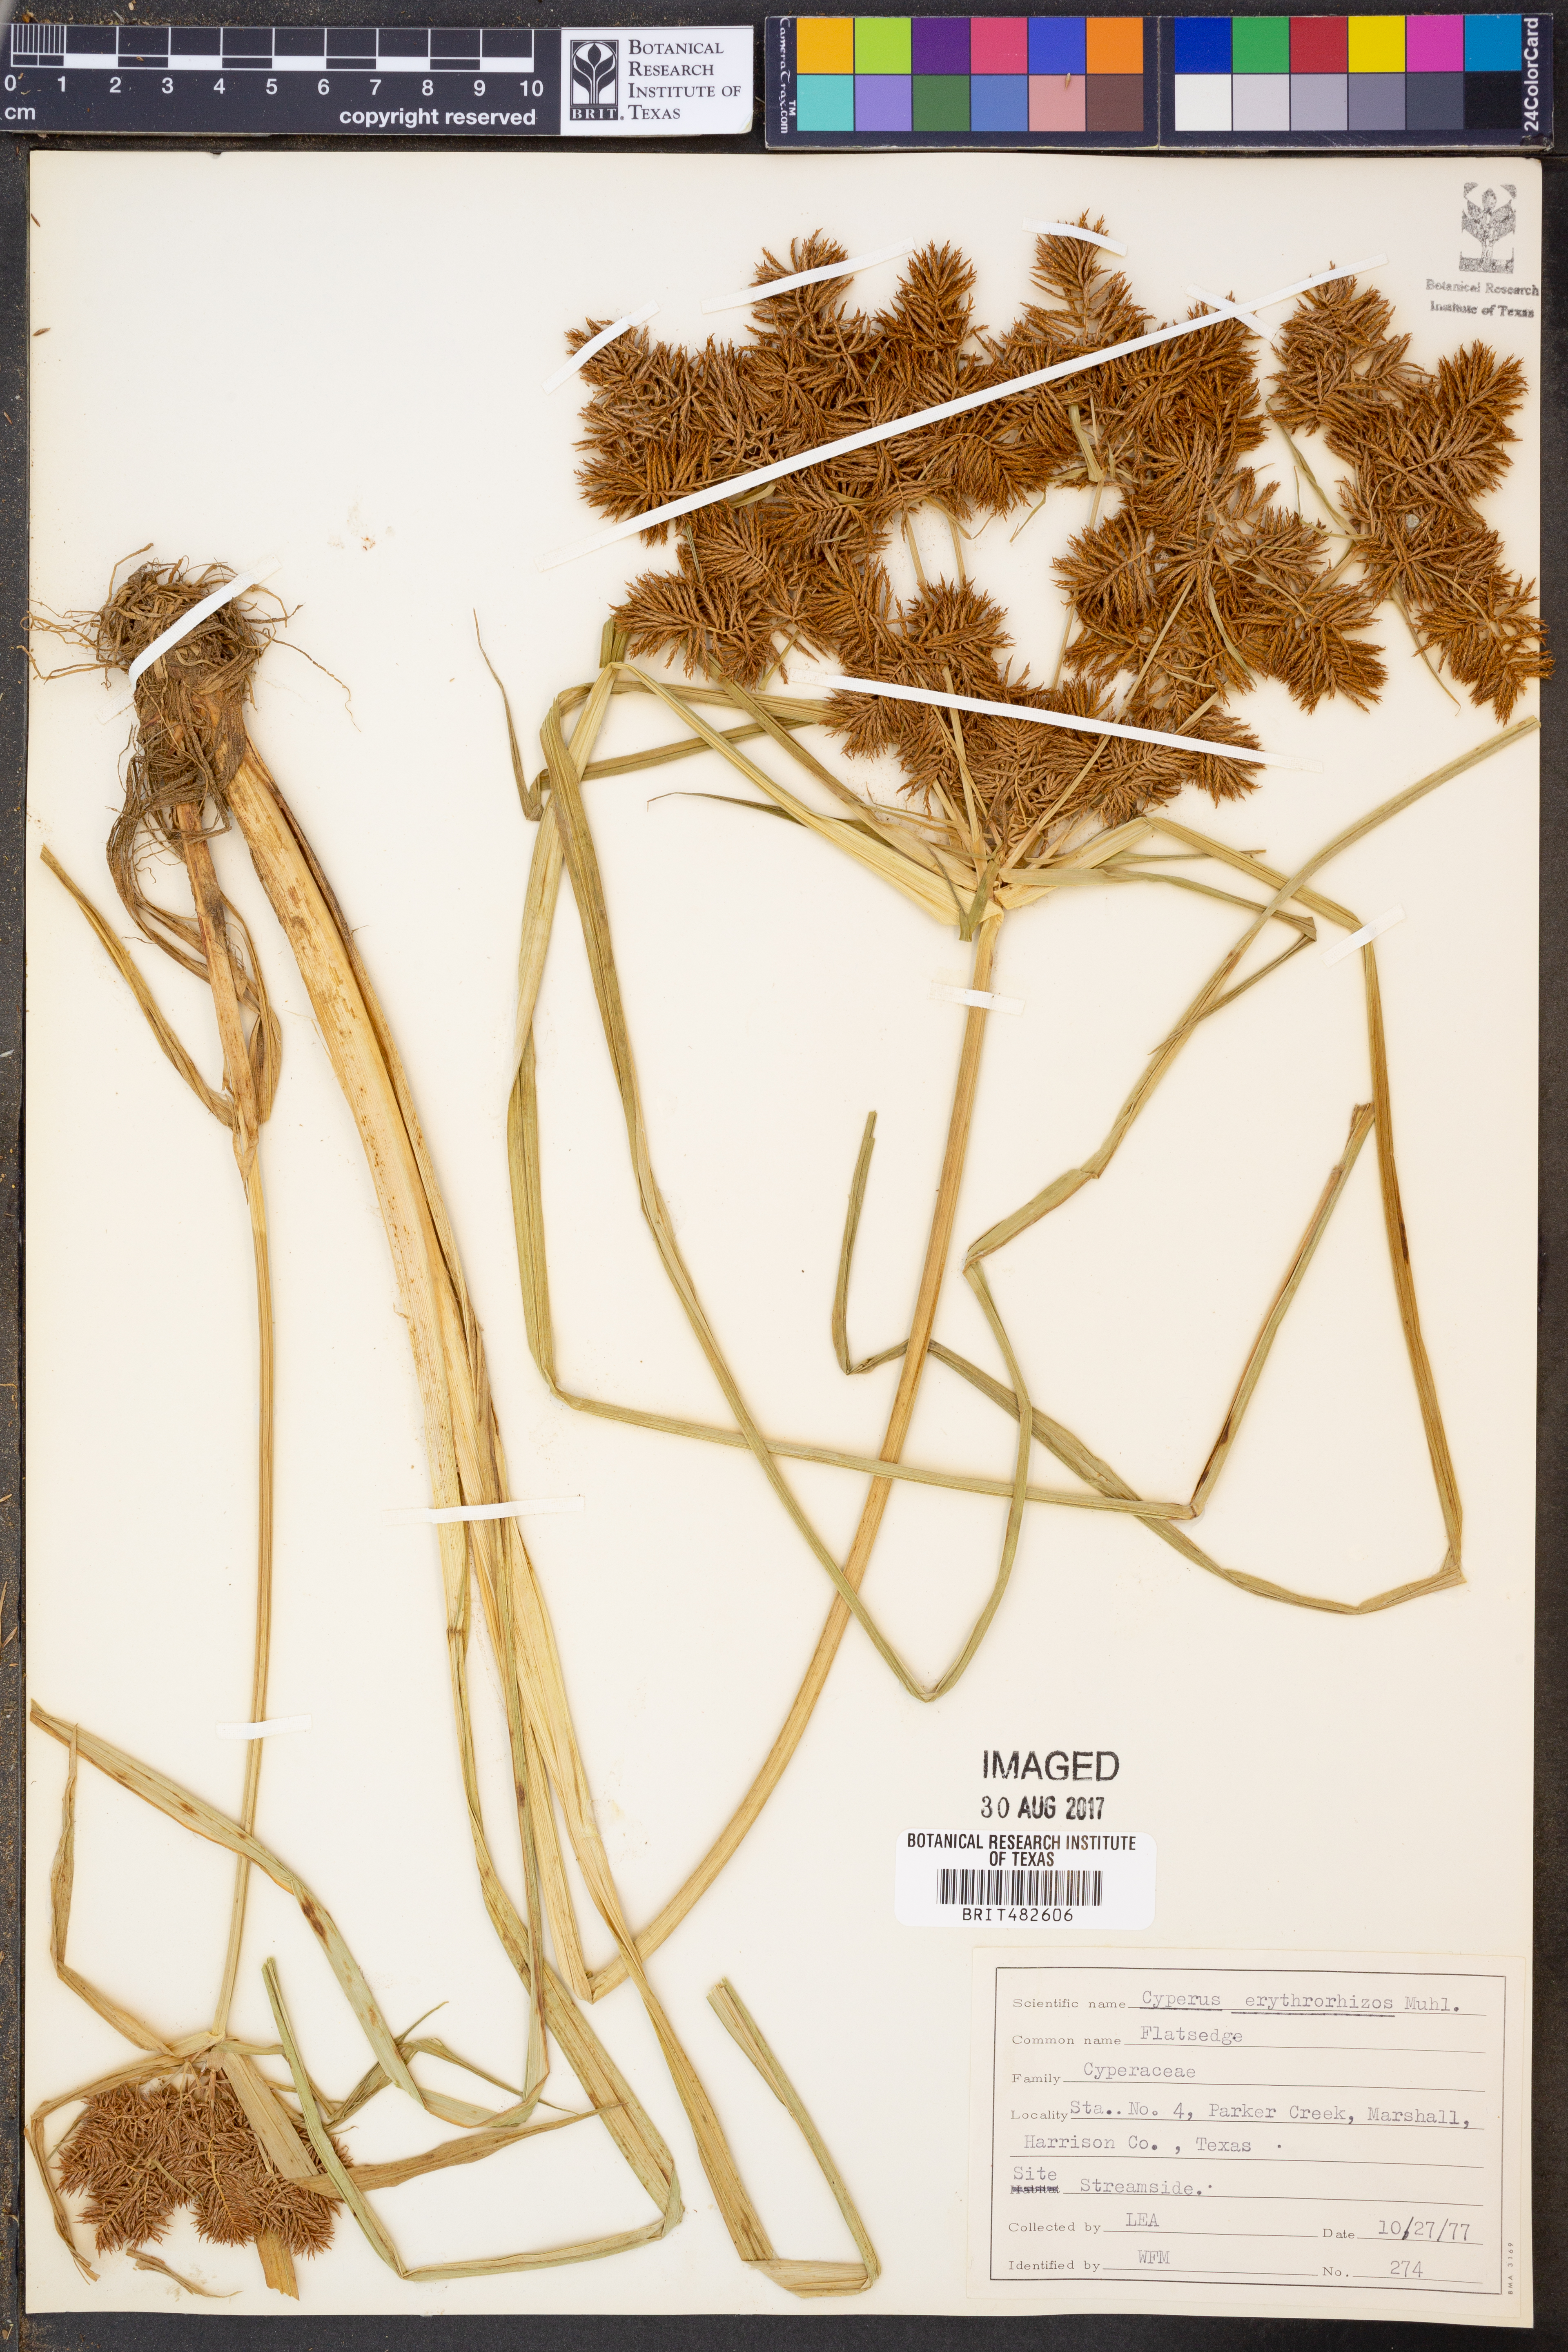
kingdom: Plantae
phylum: Tracheophyta
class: Liliopsida
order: Poales
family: Cyperaceae
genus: Cyperus
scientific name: Cyperus erythrorhizos
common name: Red-root flat sedge
